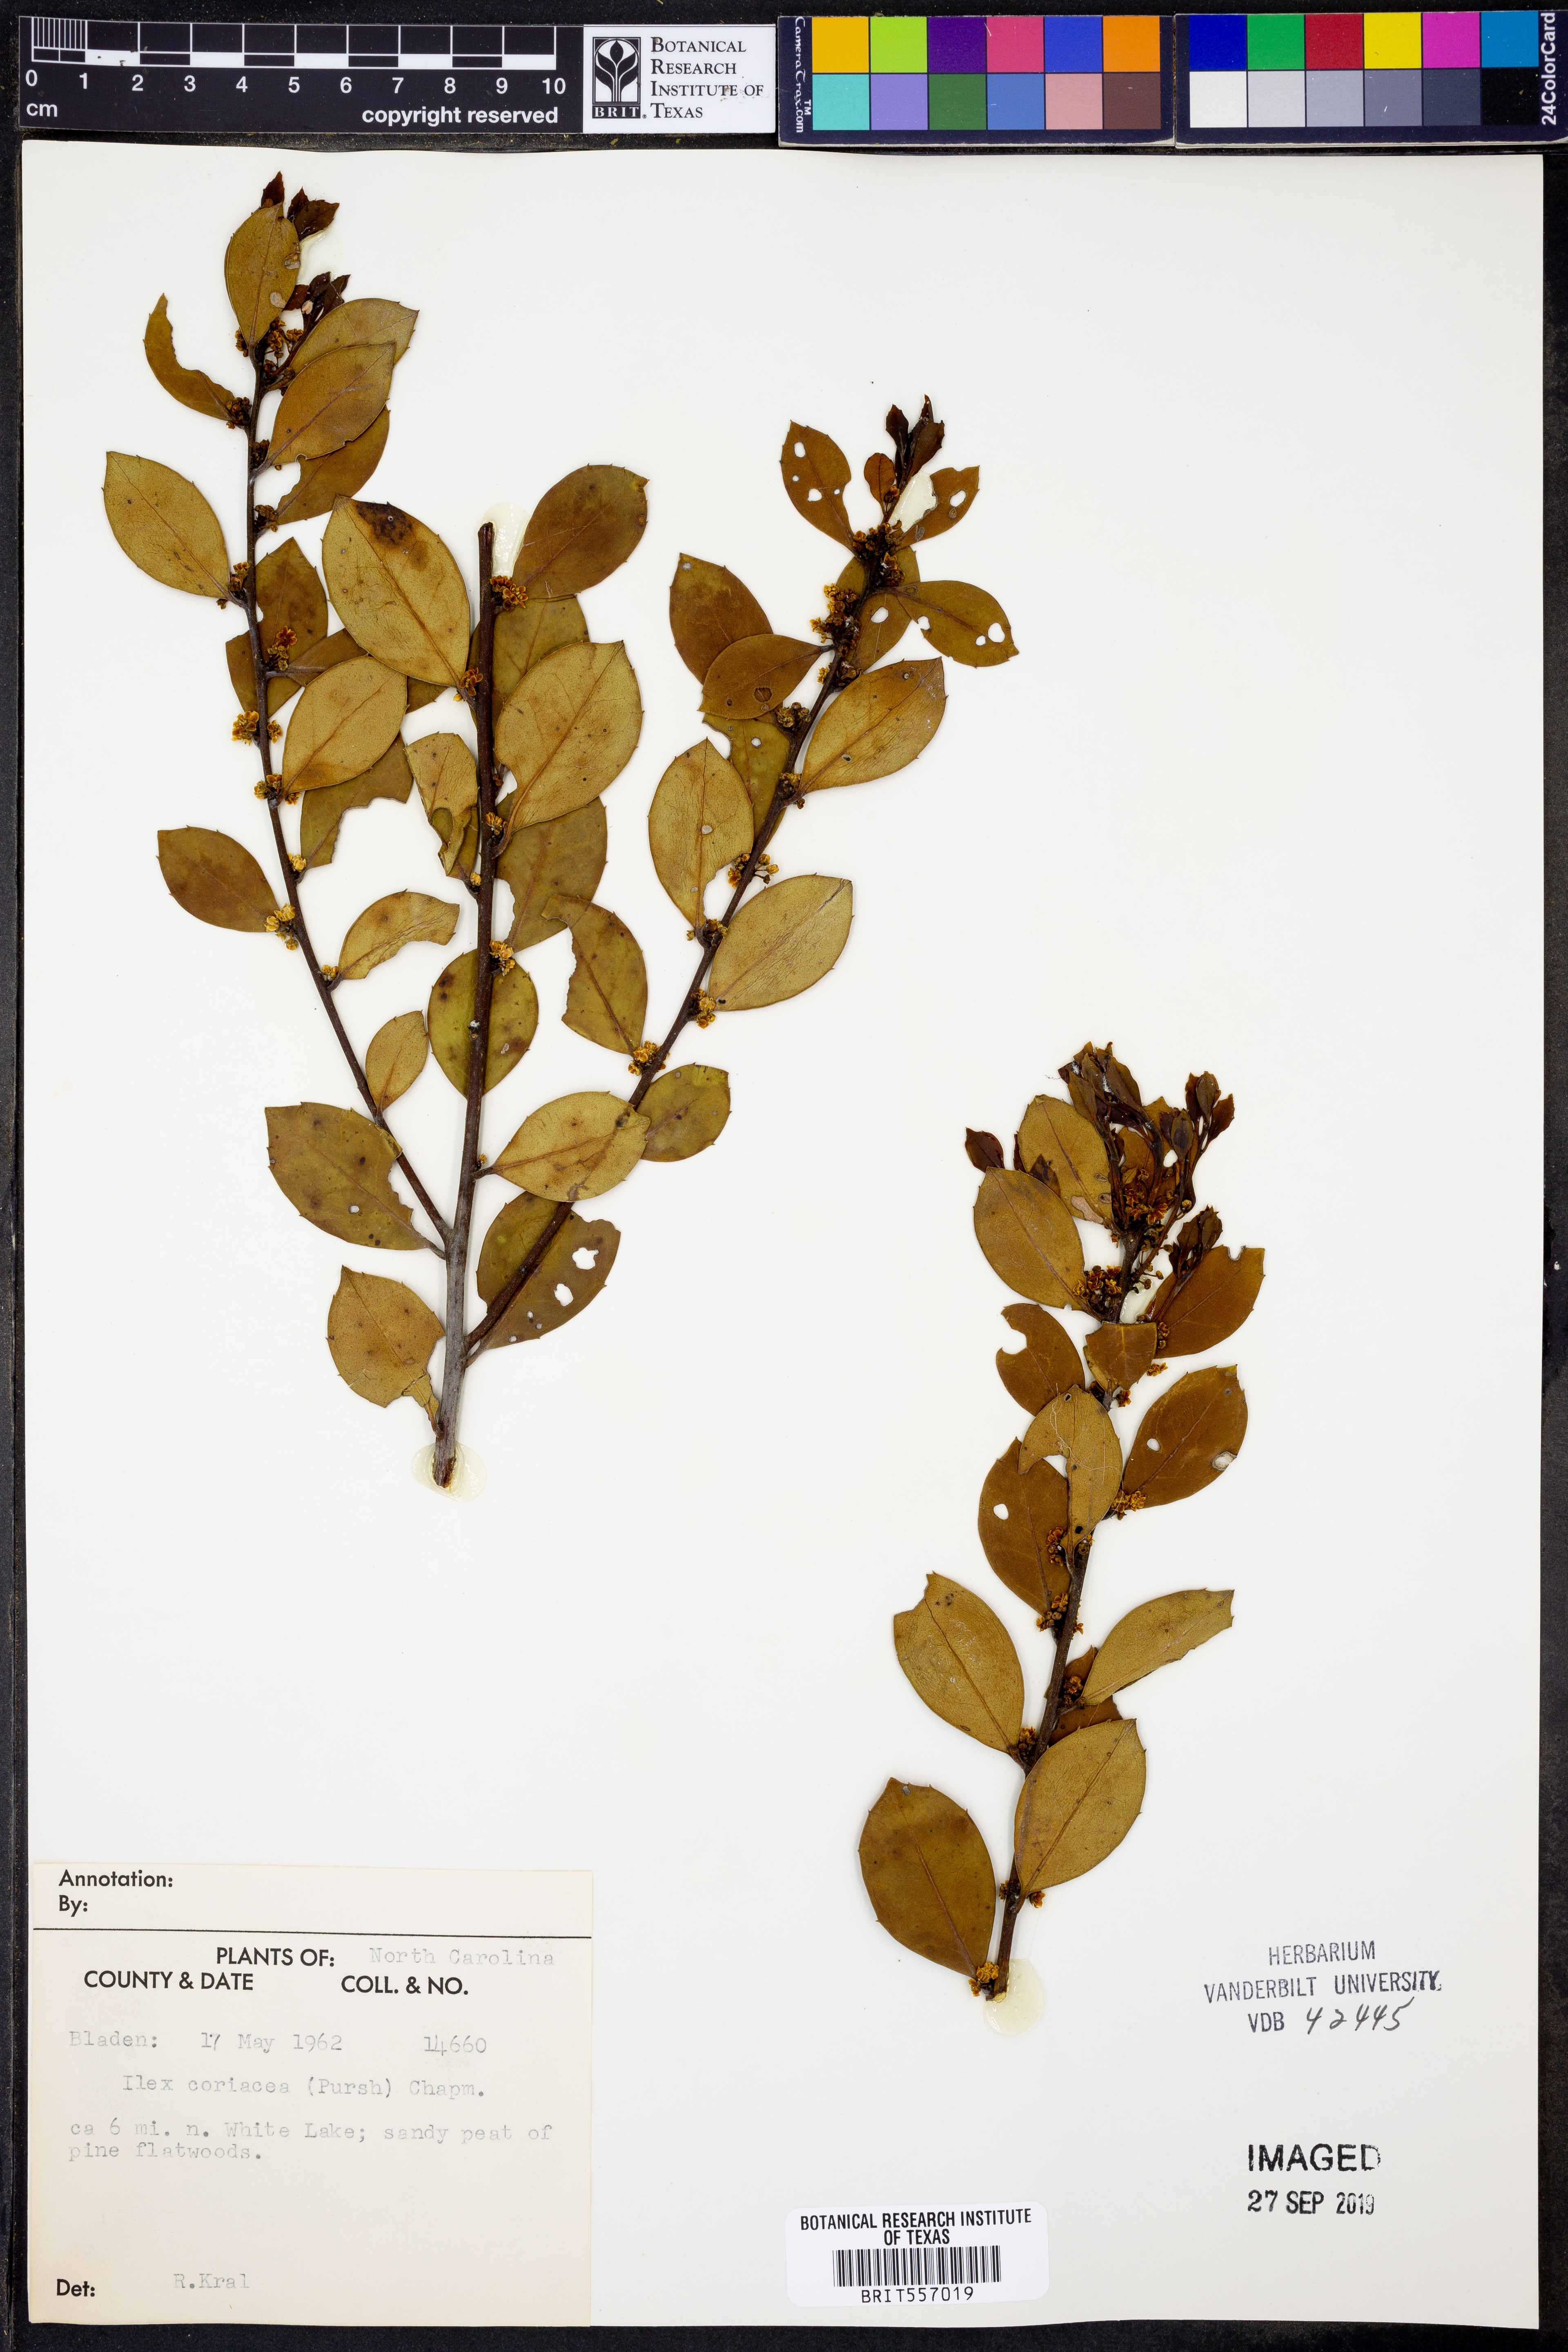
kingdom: Plantae
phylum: Tracheophyta
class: Magnoliopsida
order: Aquifoliales
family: Aquifoliaceae
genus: Ilex
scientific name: Ilex coriacea
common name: Sweet gallberry
